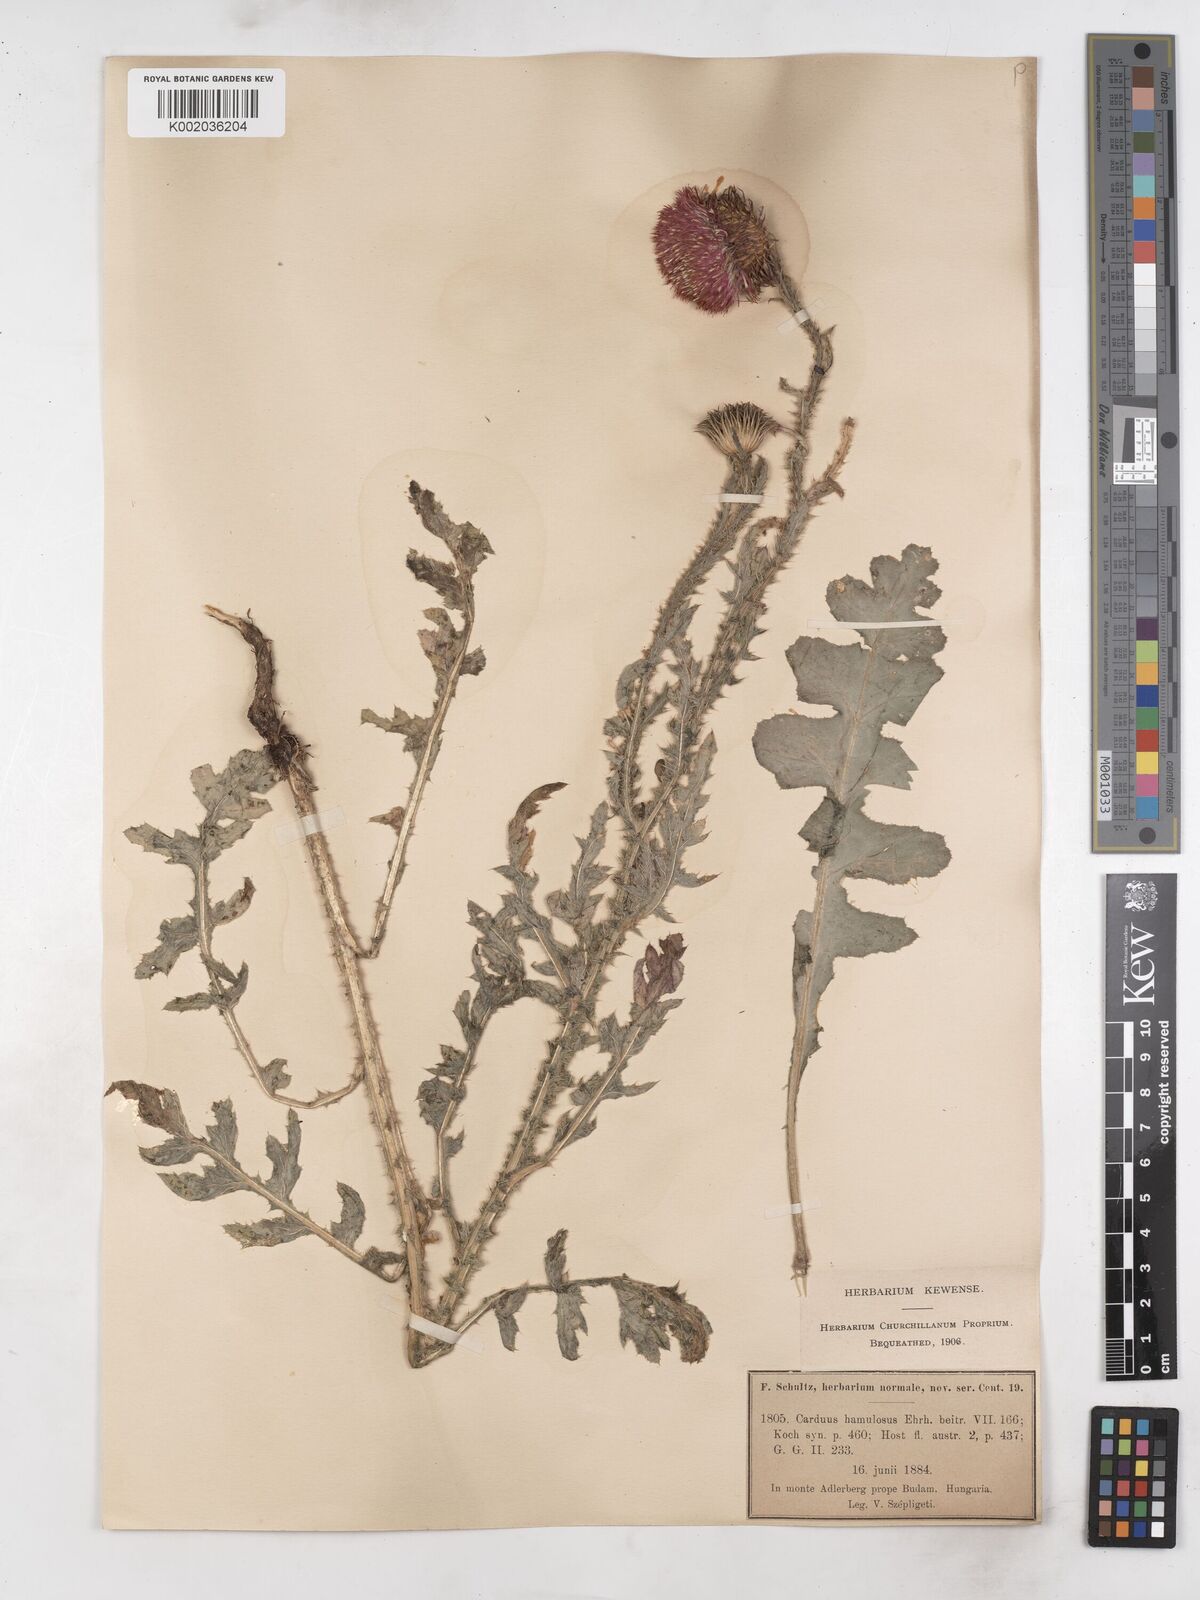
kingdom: Plantae
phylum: Tracheophyta
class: Magnoliopsida
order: Asterales
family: Asteraceae
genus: Carduus
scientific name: Carduus hamulosus
